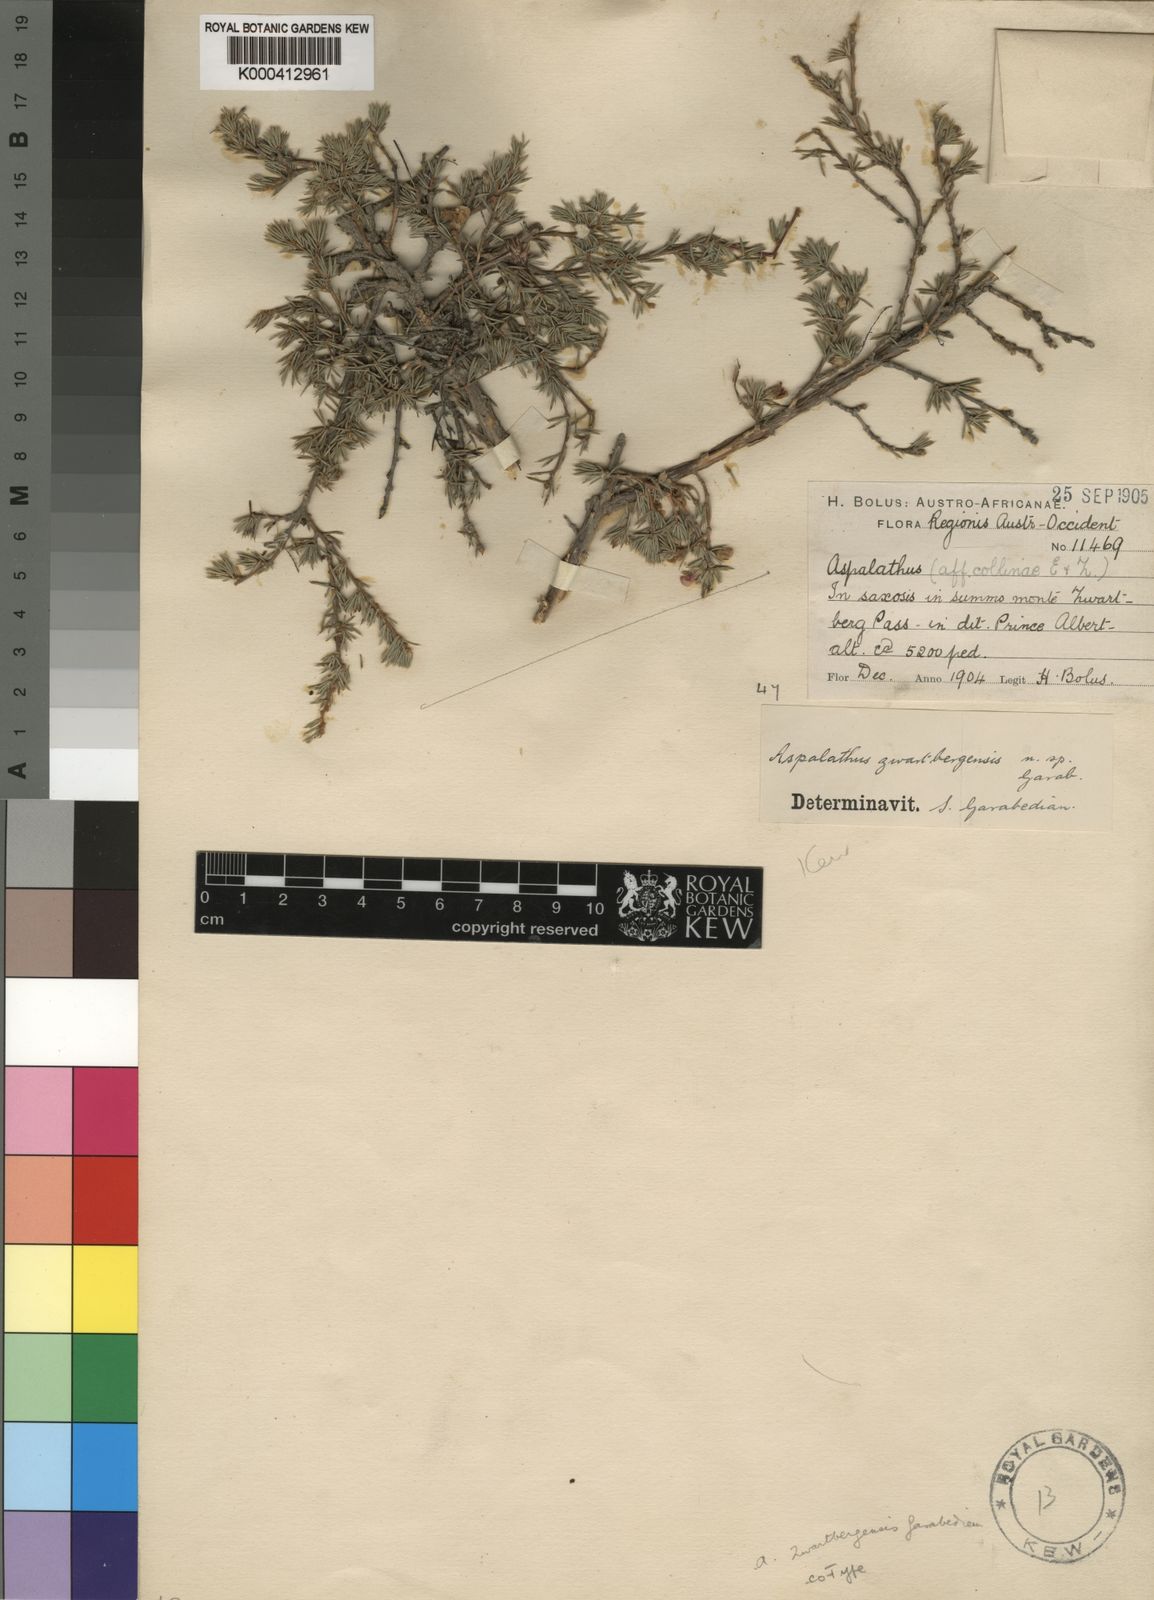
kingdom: Plantae
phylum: Tracheophyta
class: Magnoliopsida
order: Fabales
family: Fabaceae
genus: Aspalathus
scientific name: Aspalathus
